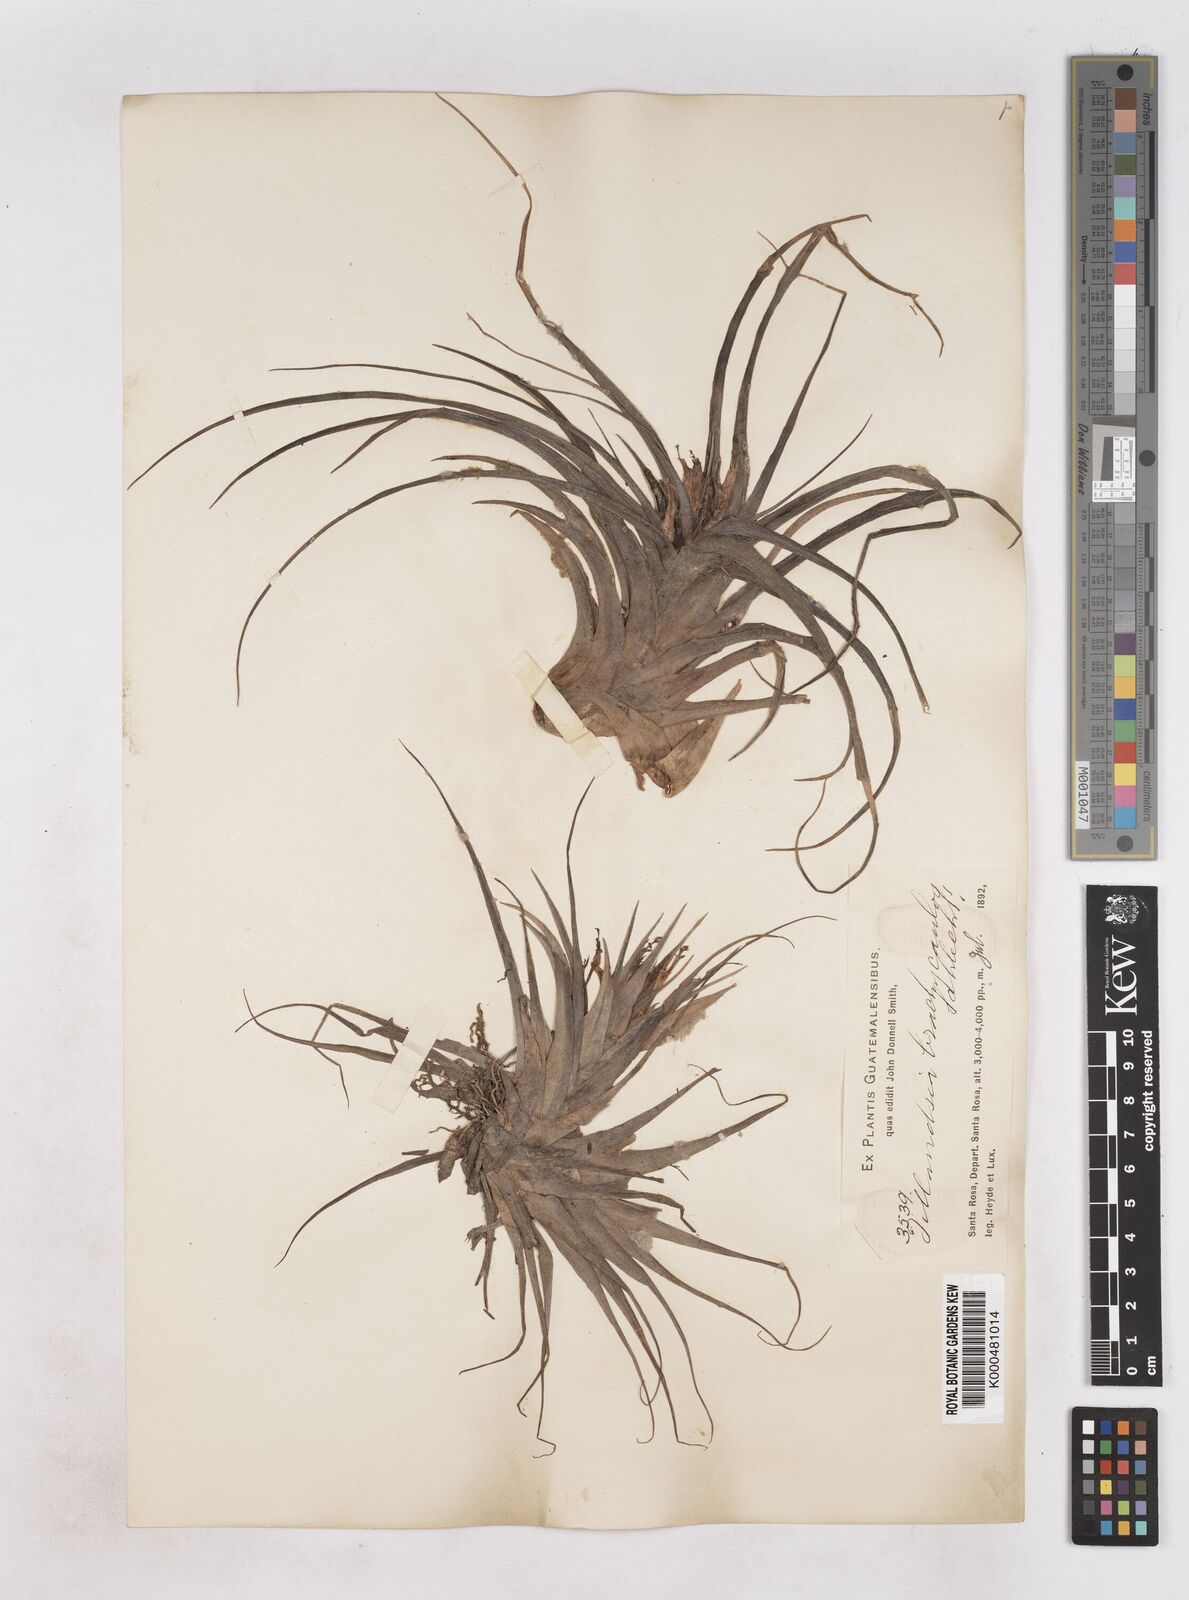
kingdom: Plantae
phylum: Tracheophyta
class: Liliopsida
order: Poales
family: Bromeliaceae
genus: Tillandsia
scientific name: Tillandsia brachycaulos
